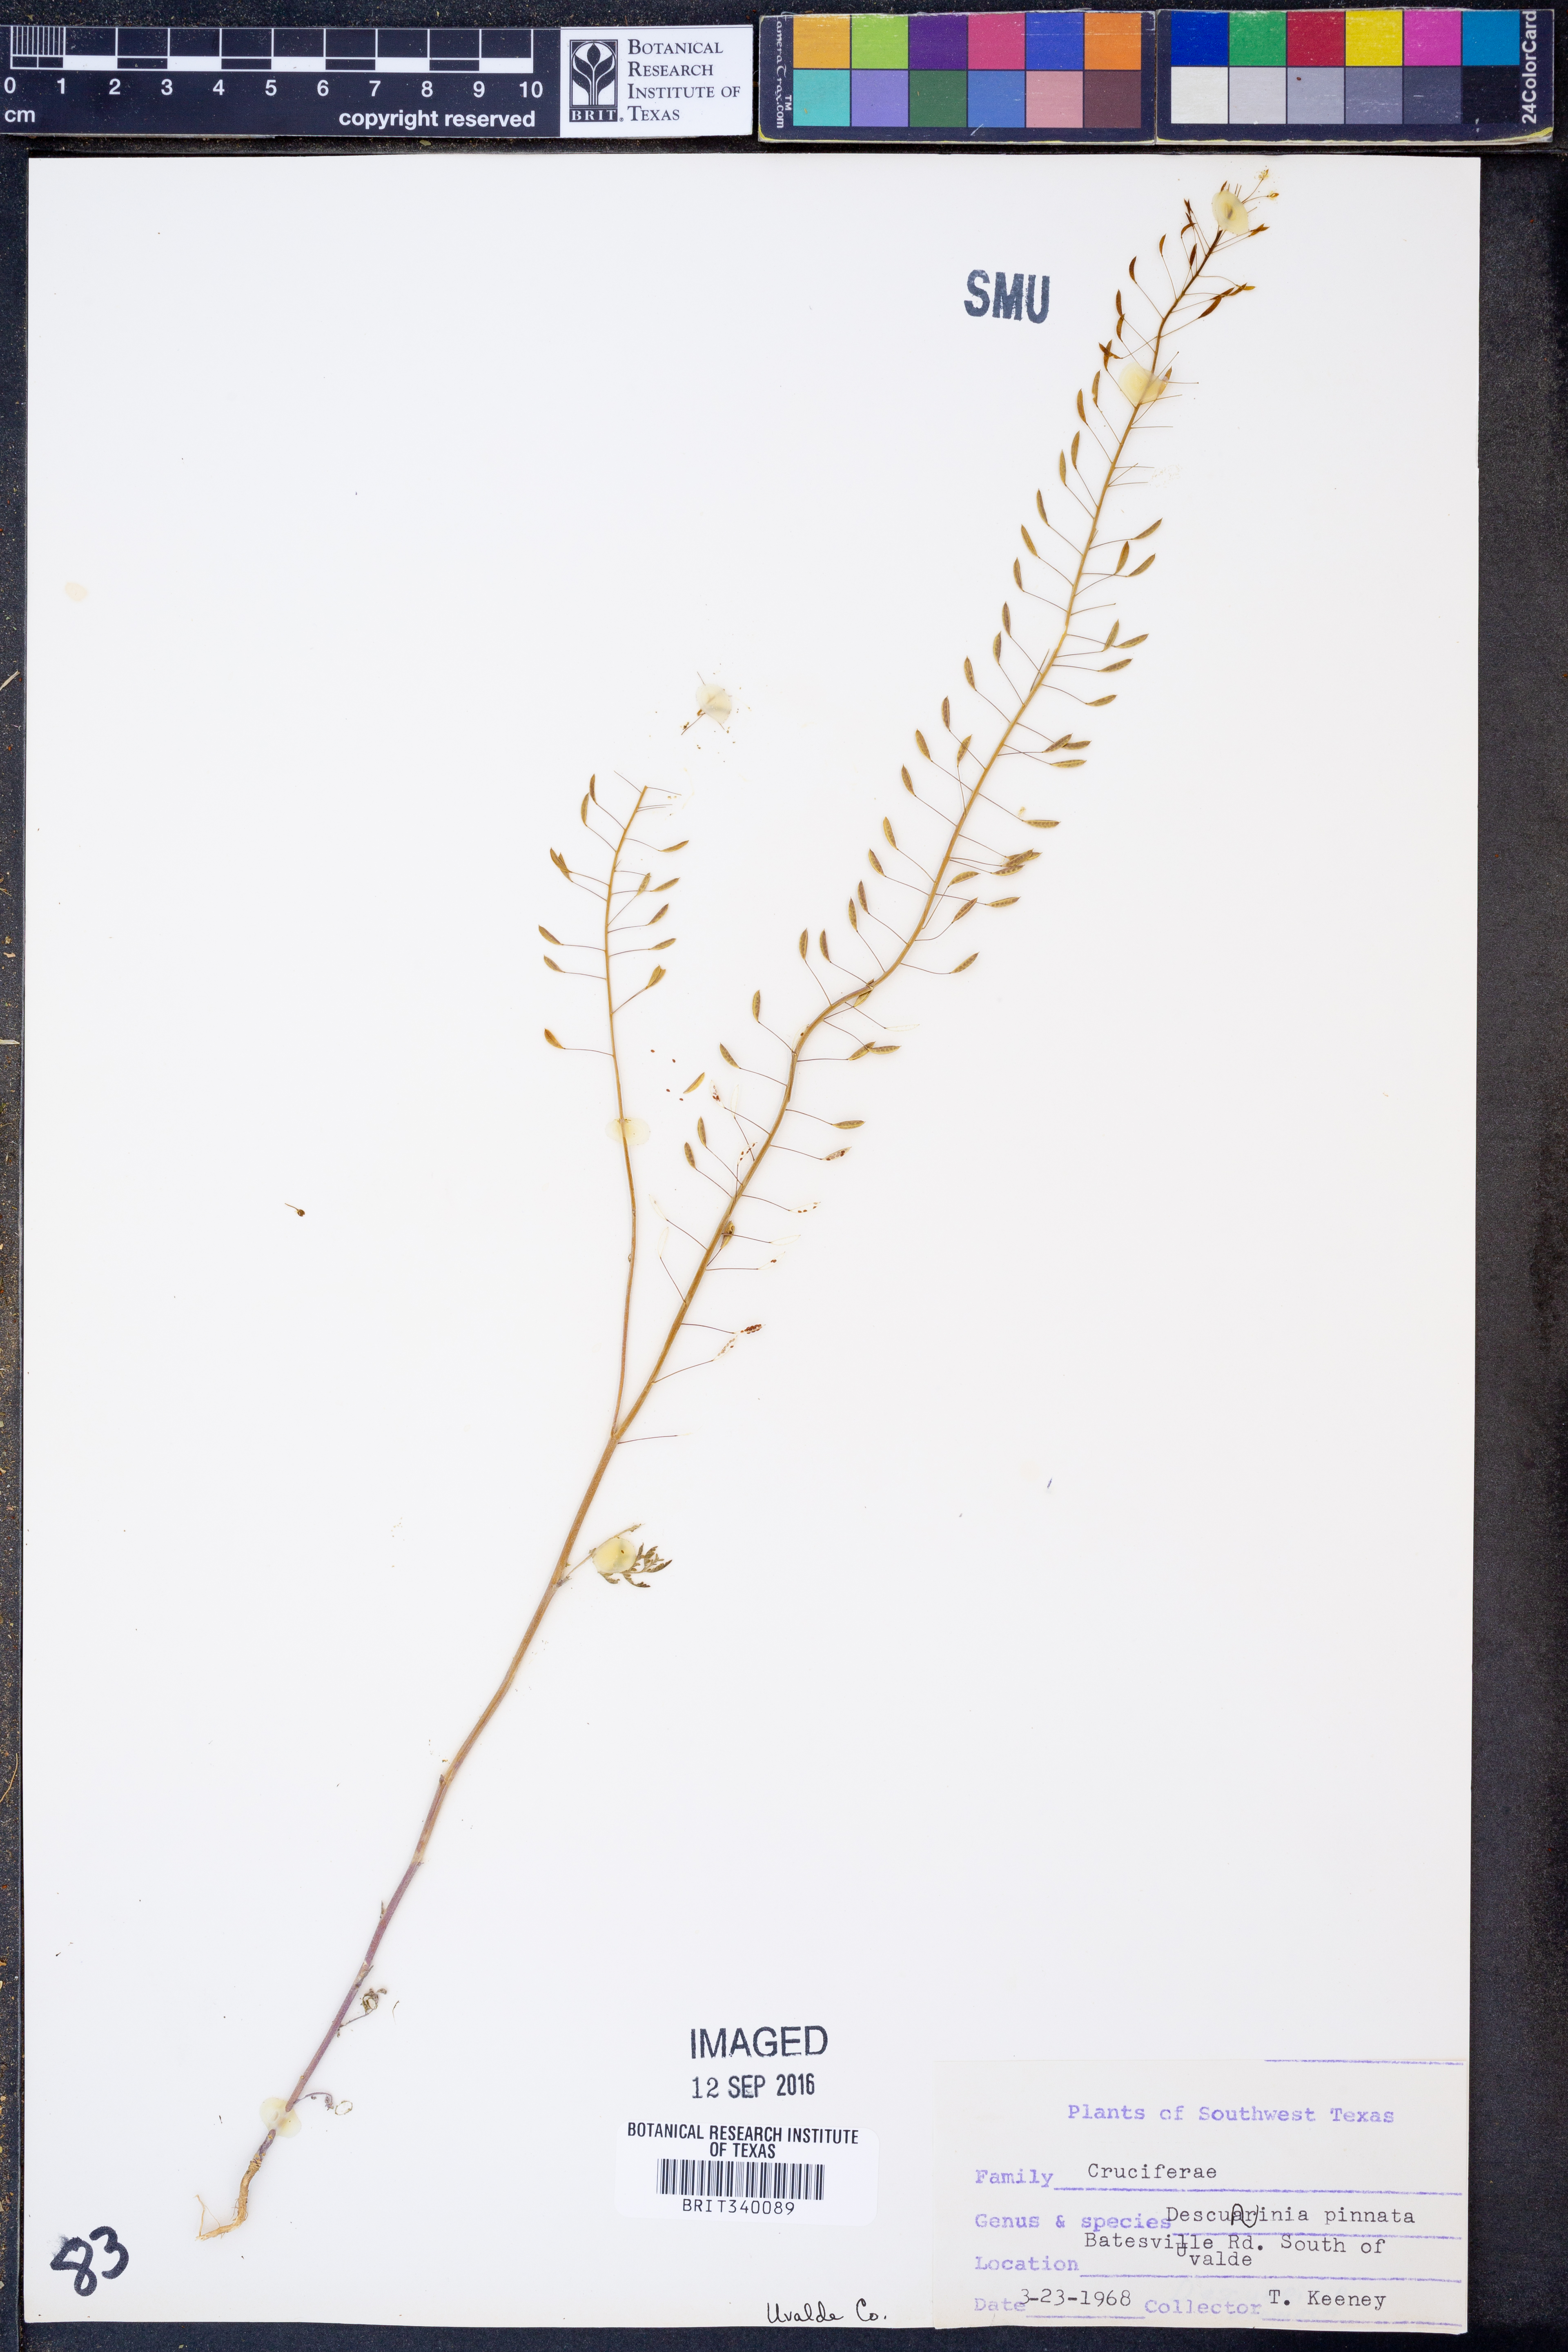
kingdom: Plantae
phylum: Tracheophyta
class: Magnoliopsida
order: Brassicales
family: Brassicaceae
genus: Descurainia
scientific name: Descurainia pinnata
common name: Western tansy mustard
